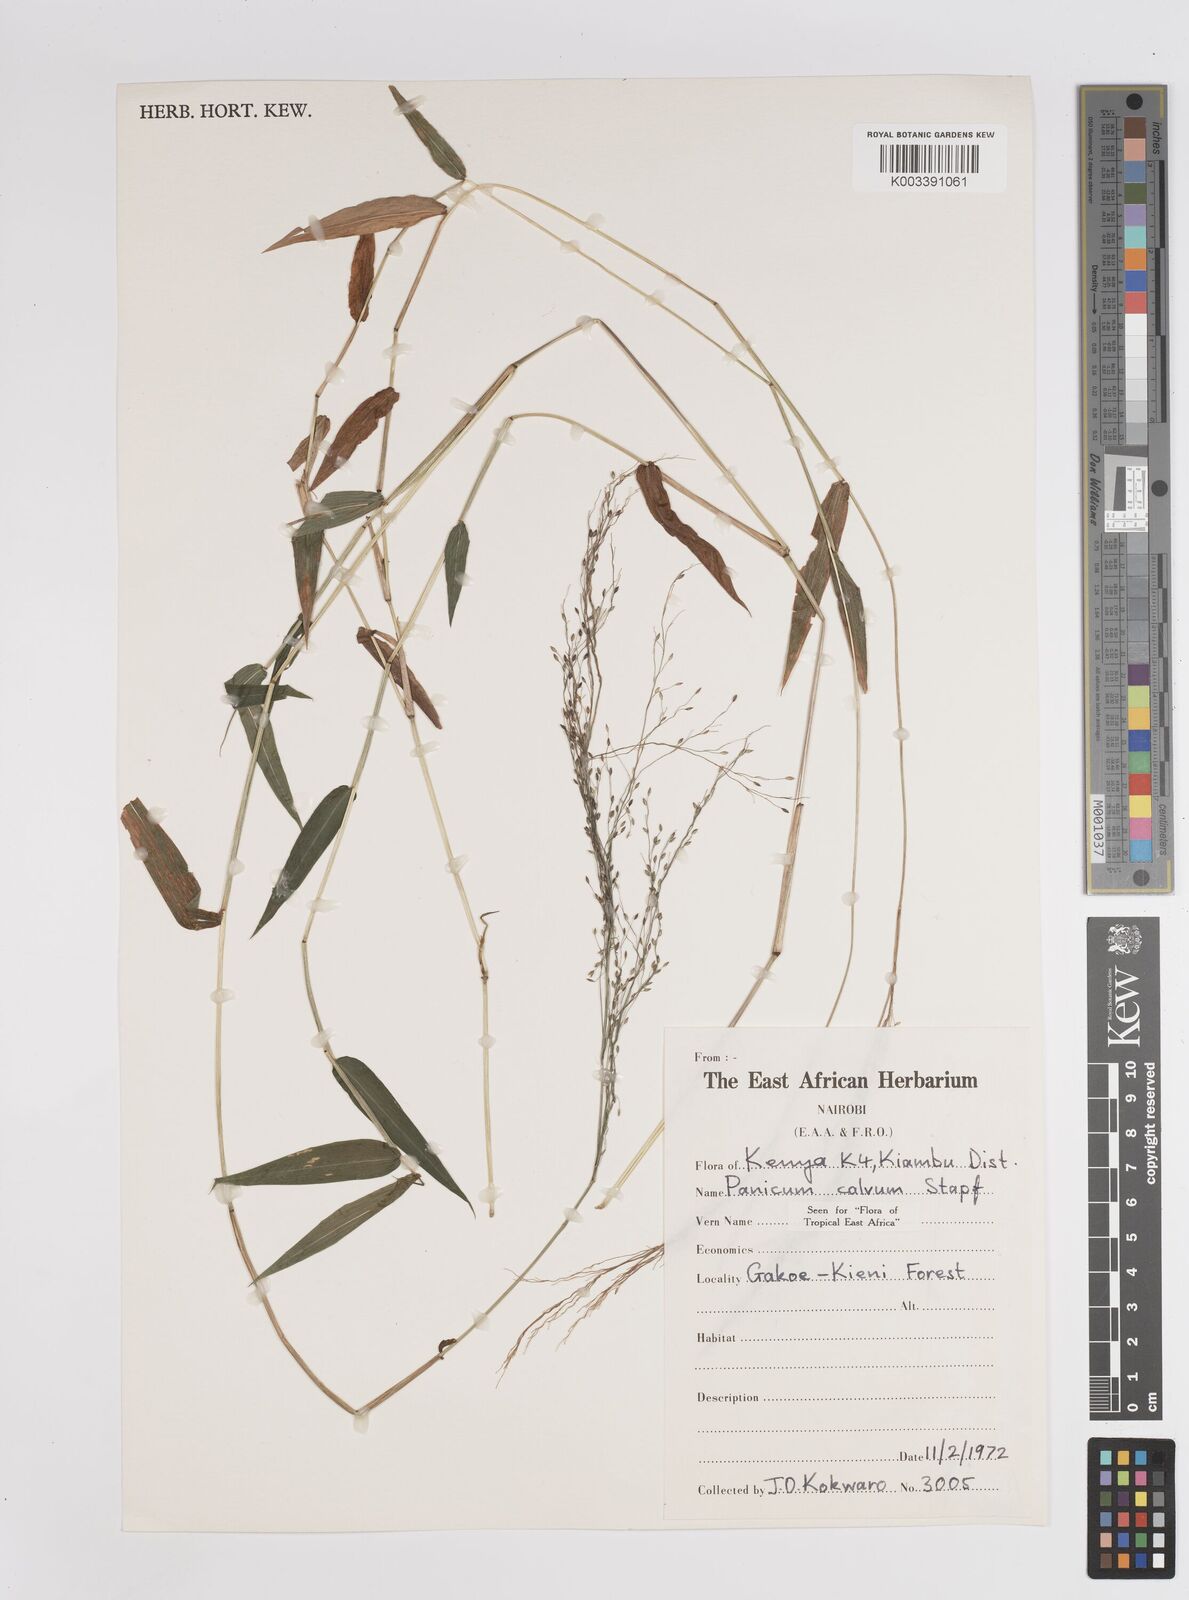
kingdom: Plantae
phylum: Tracheophyta
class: Liliopsida
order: Poales
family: Poaceae
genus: Panicum
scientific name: Panicum calvum
